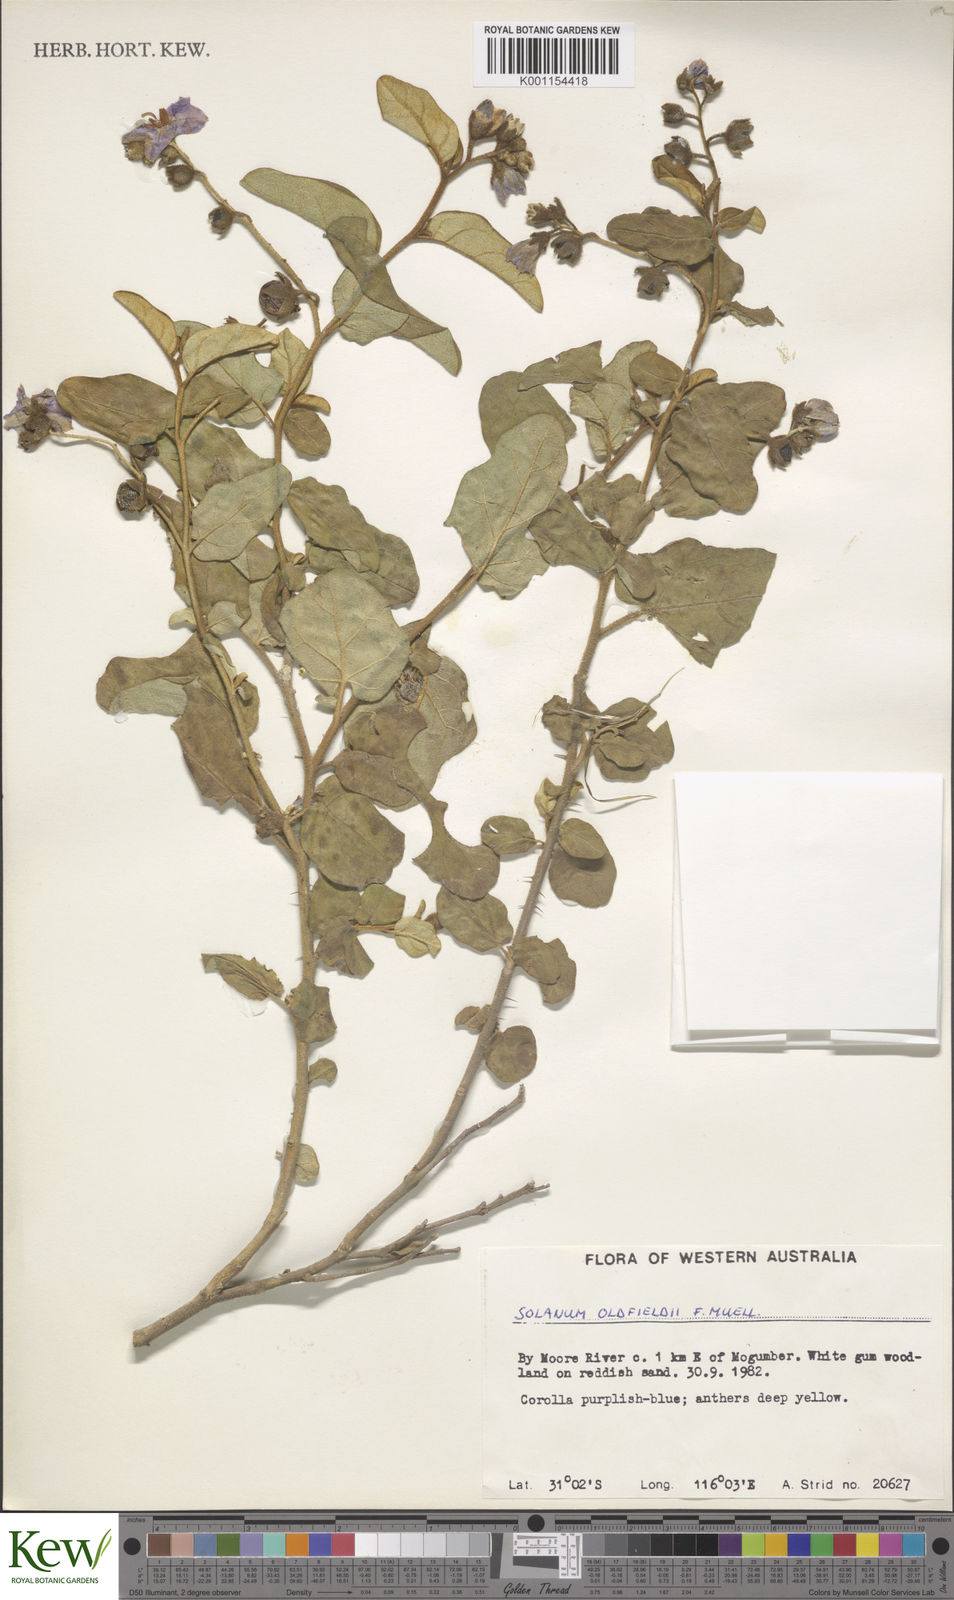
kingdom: Plantae
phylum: Tracheophyta
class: Magnoliopsida
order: Solanales
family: Solanaceae
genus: Solanum
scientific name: Solanum oldfieldii
